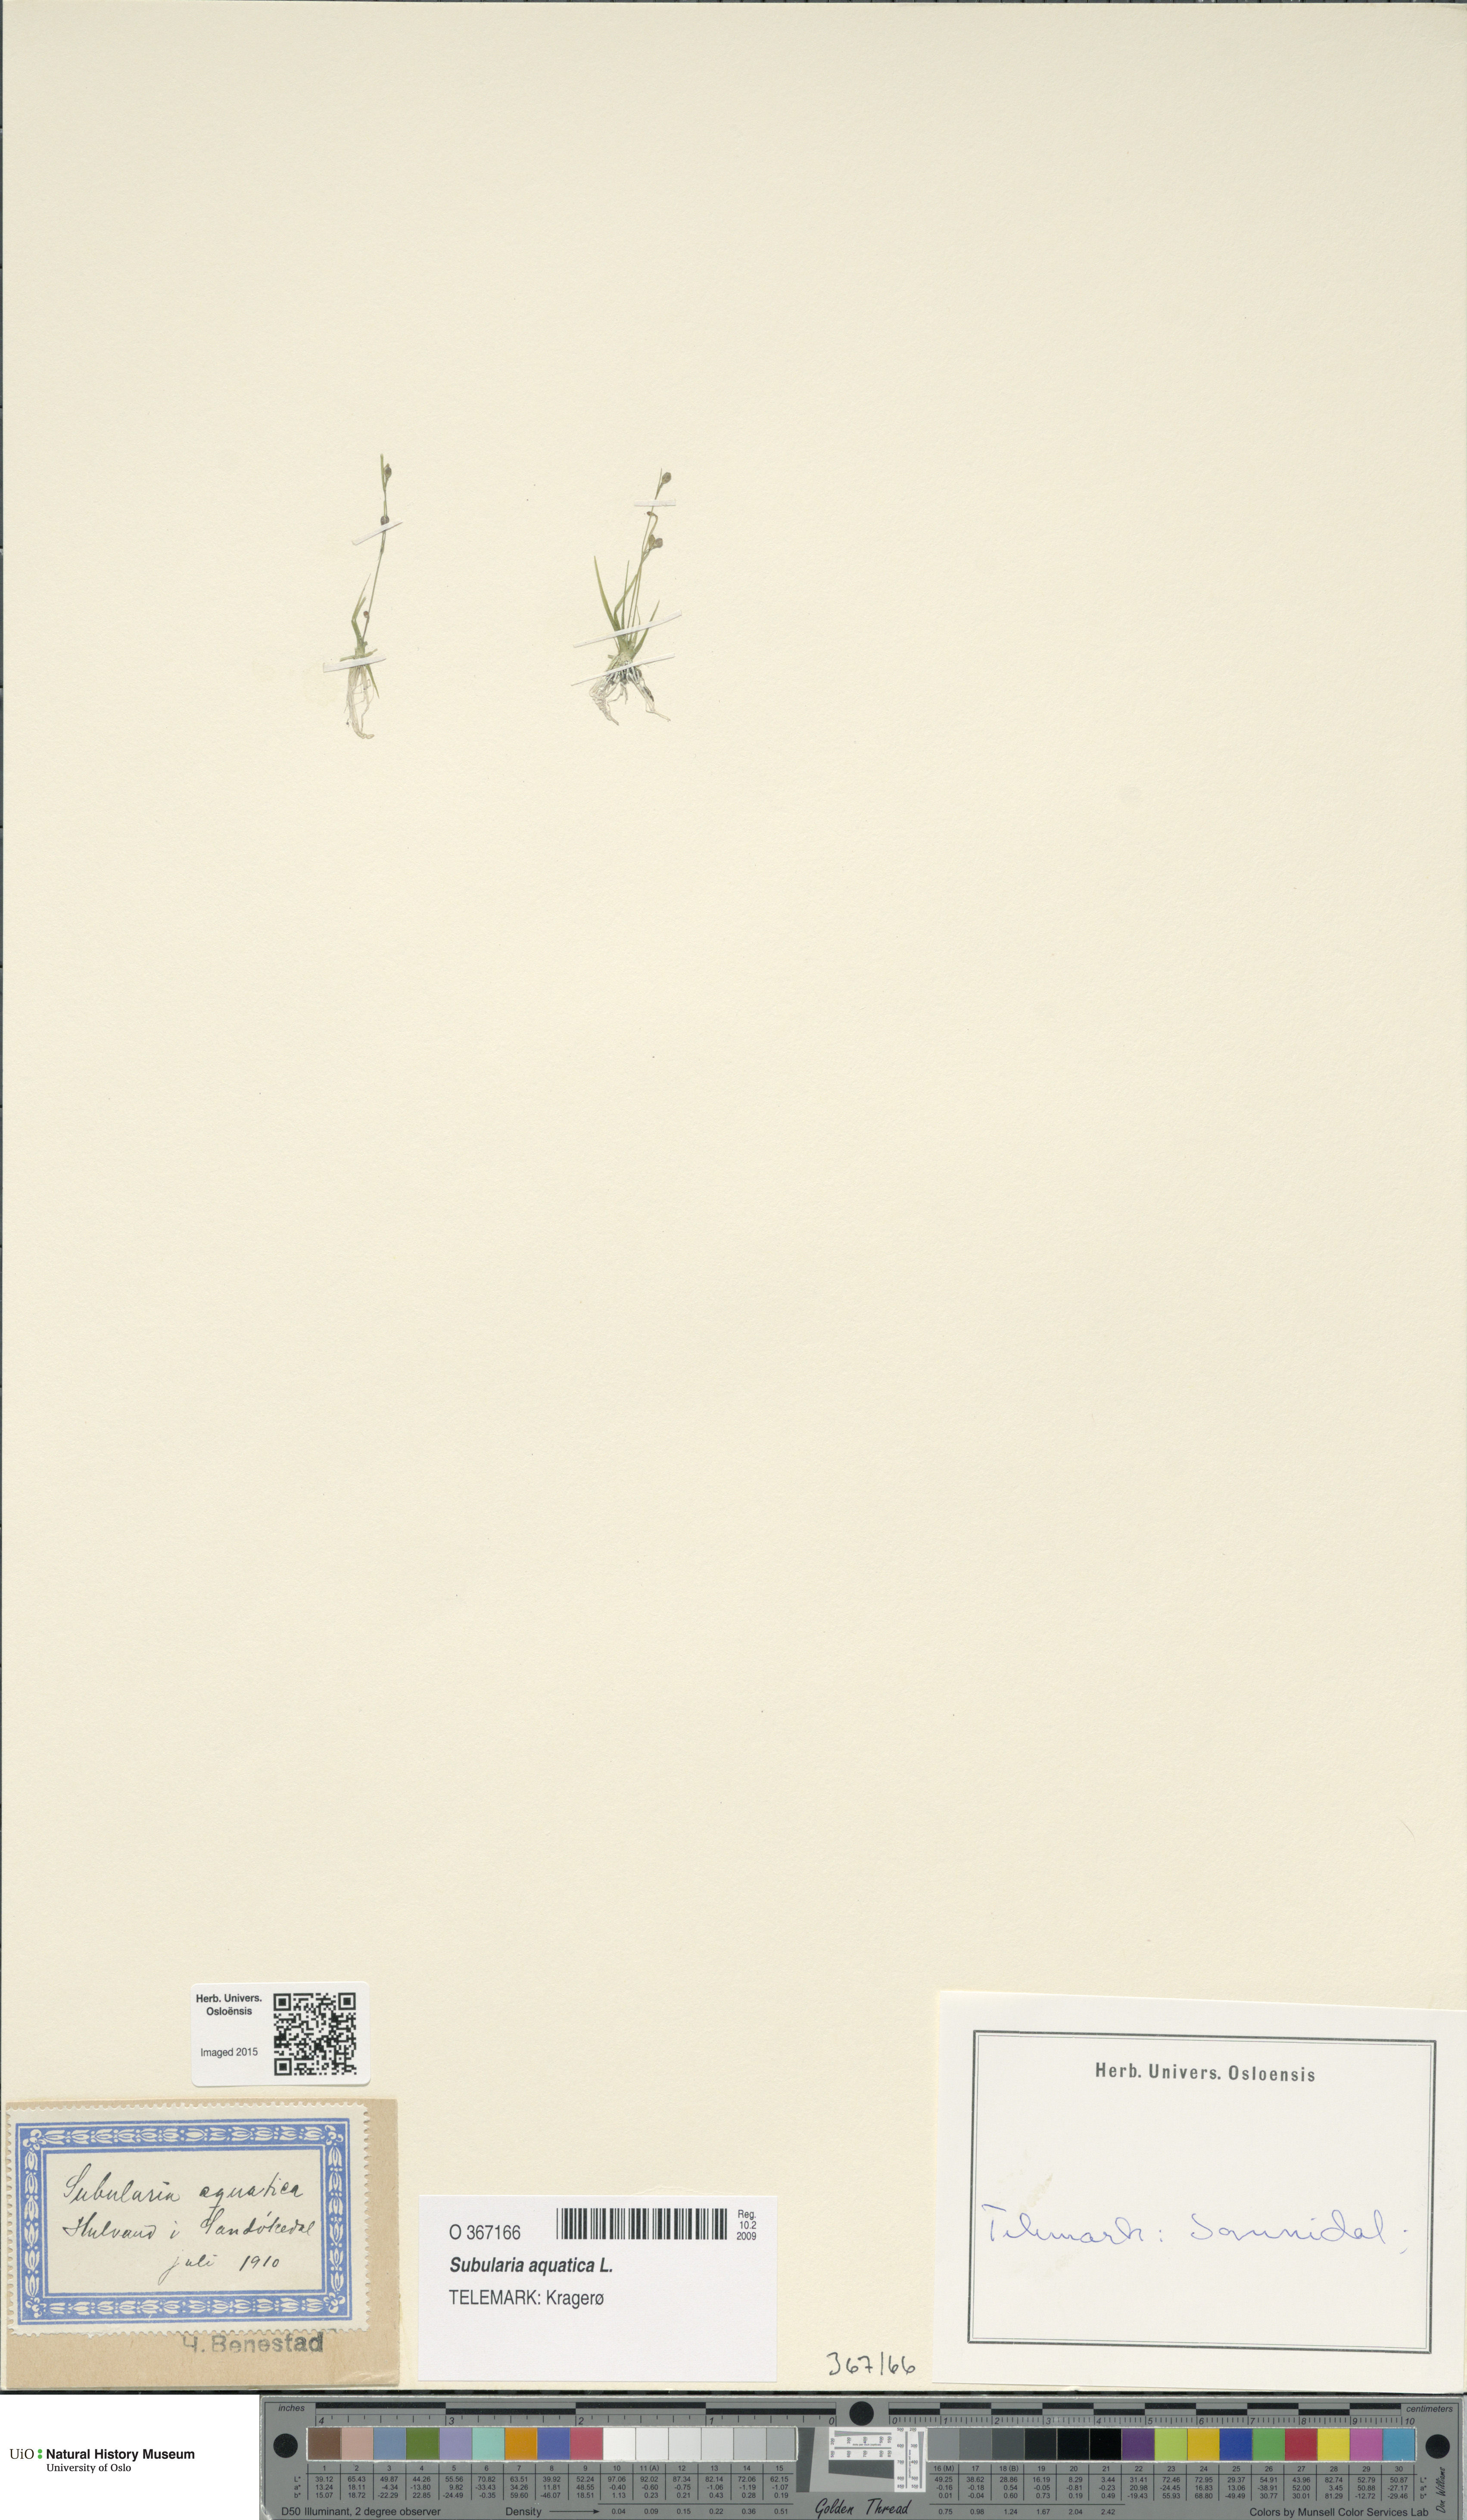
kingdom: Plantae
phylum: Tracheophyta
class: Magnoliopsida
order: Brassicales
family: Brassicaceae
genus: Subularia
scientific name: Subularia aquatica
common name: Awlwort
